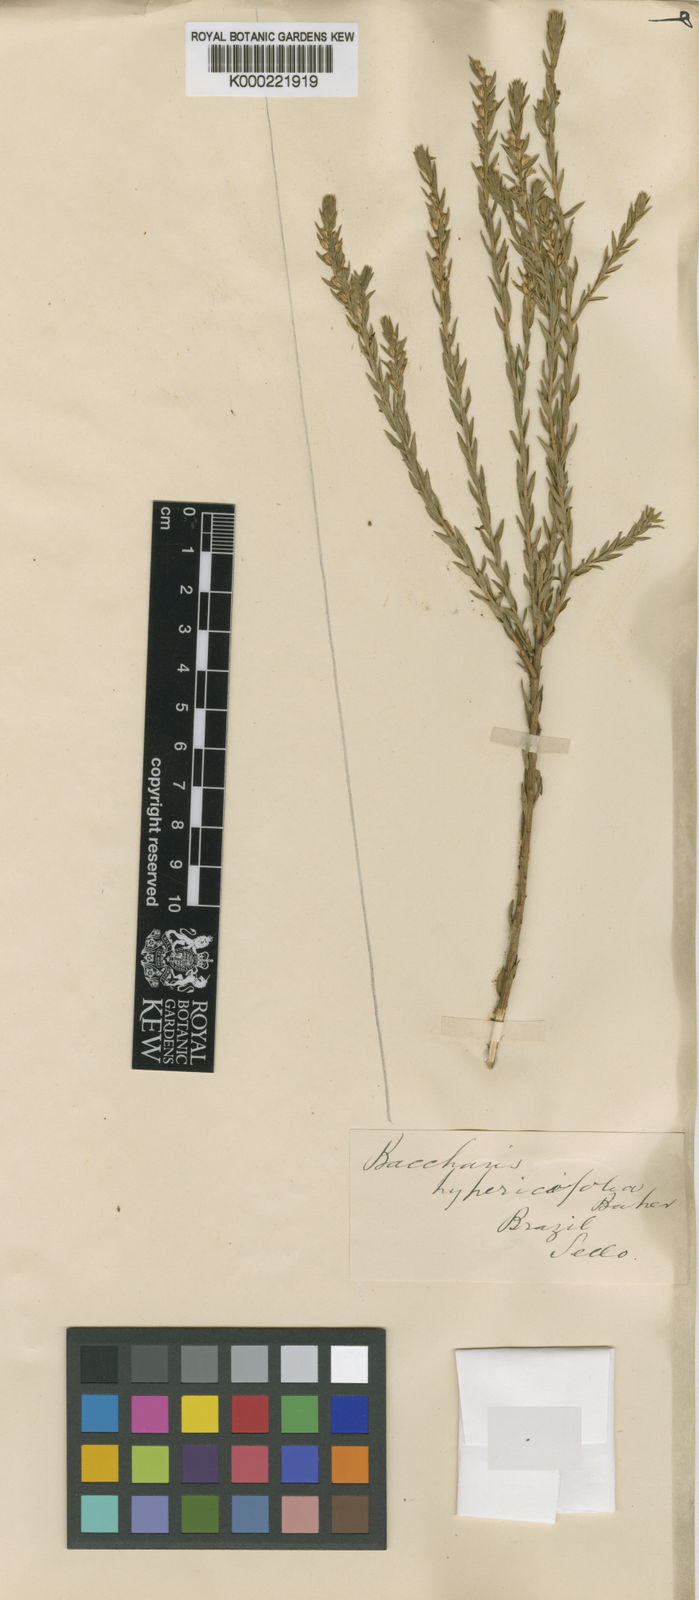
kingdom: Plantae
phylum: Tracheophyta
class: Magnoliopsida
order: Asterales
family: Asteraceae
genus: Baccharis
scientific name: Baccharis hypericifolia
